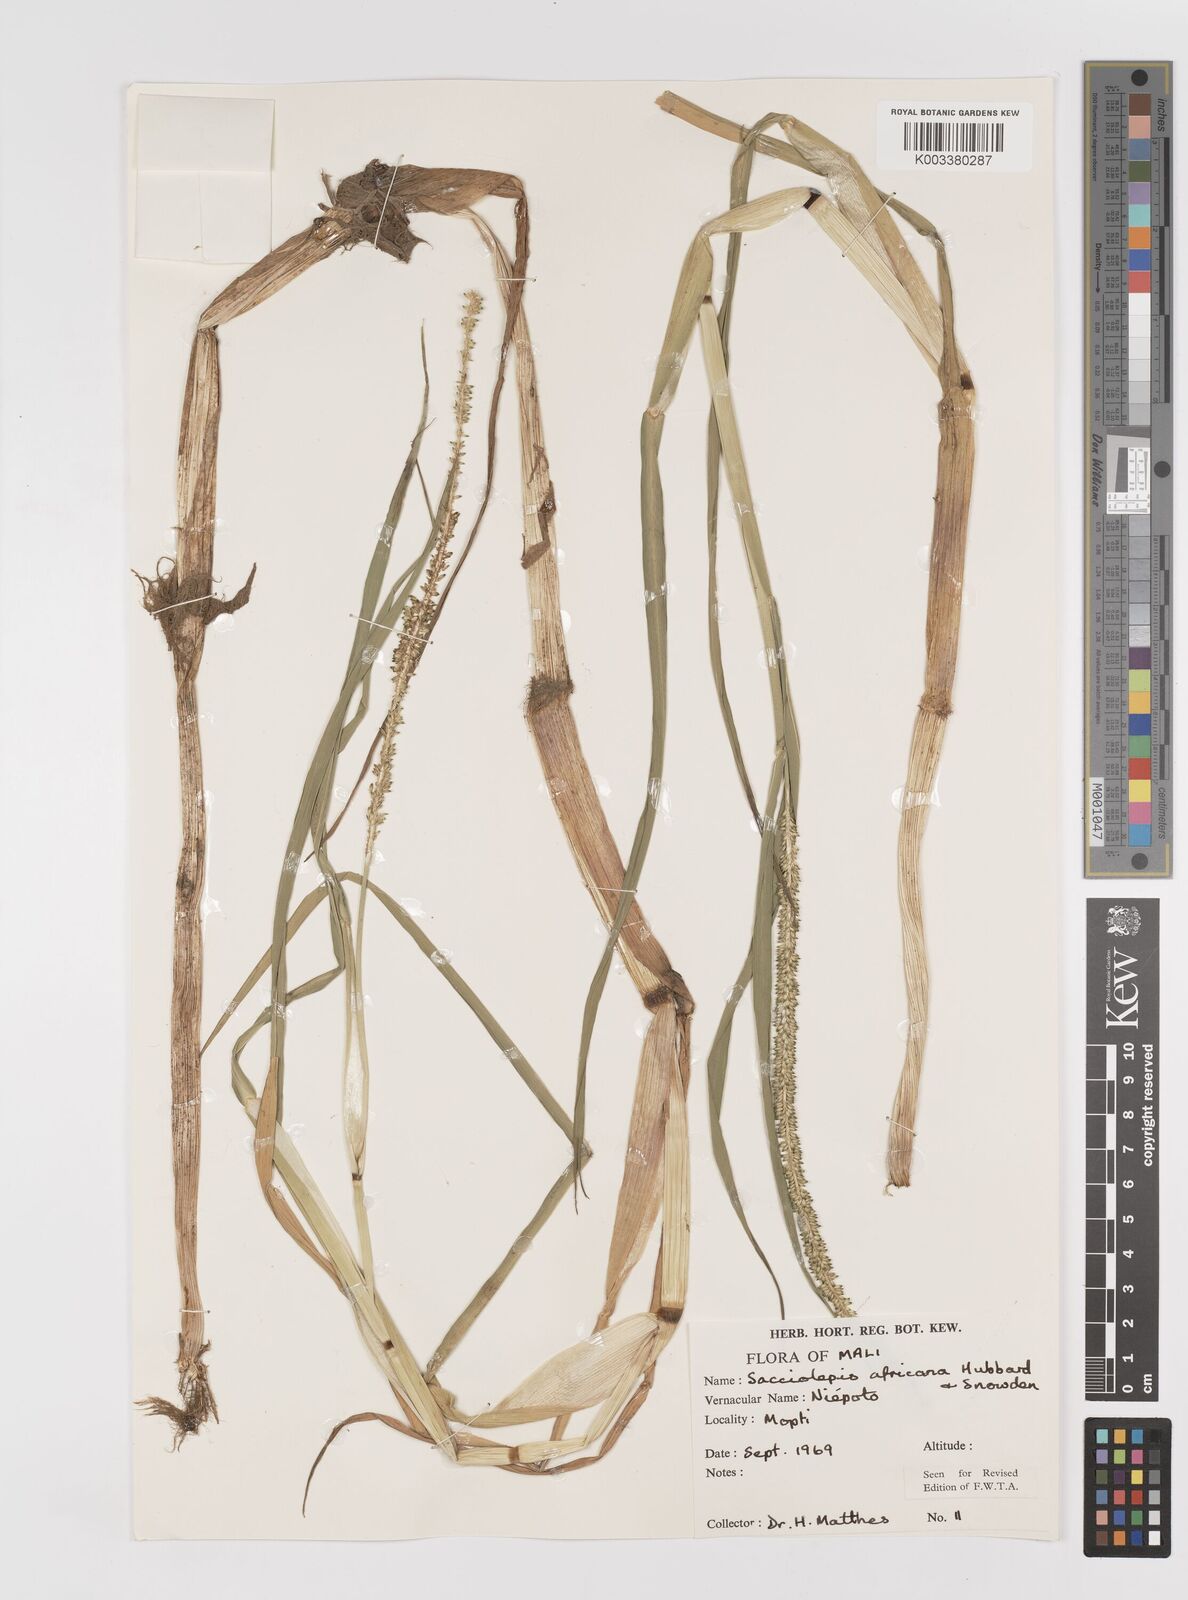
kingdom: Plantae
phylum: Tracheophyta
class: Liliopsida
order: Poales
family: Poaceae
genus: Sacciolepis
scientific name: Sacciolepis africana
